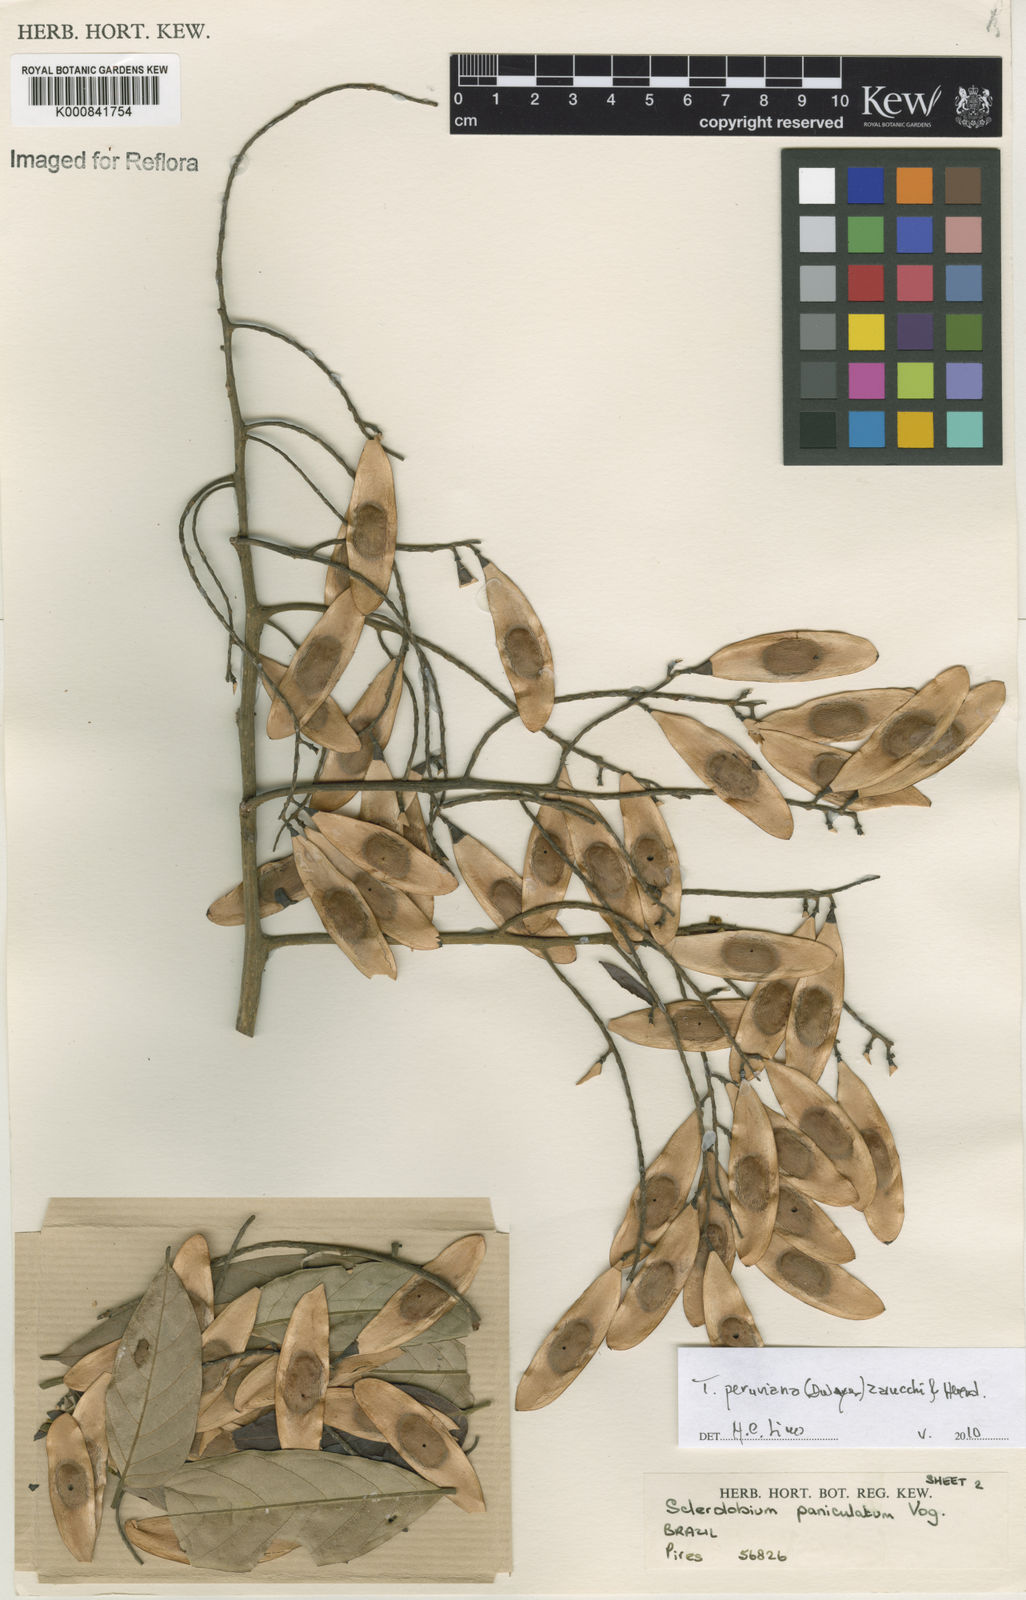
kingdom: Plantae
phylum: Tracheophyta
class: Magnoliopsida
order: Fabales
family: Fabaceae
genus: Tachigali
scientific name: Tachigali peruviana
